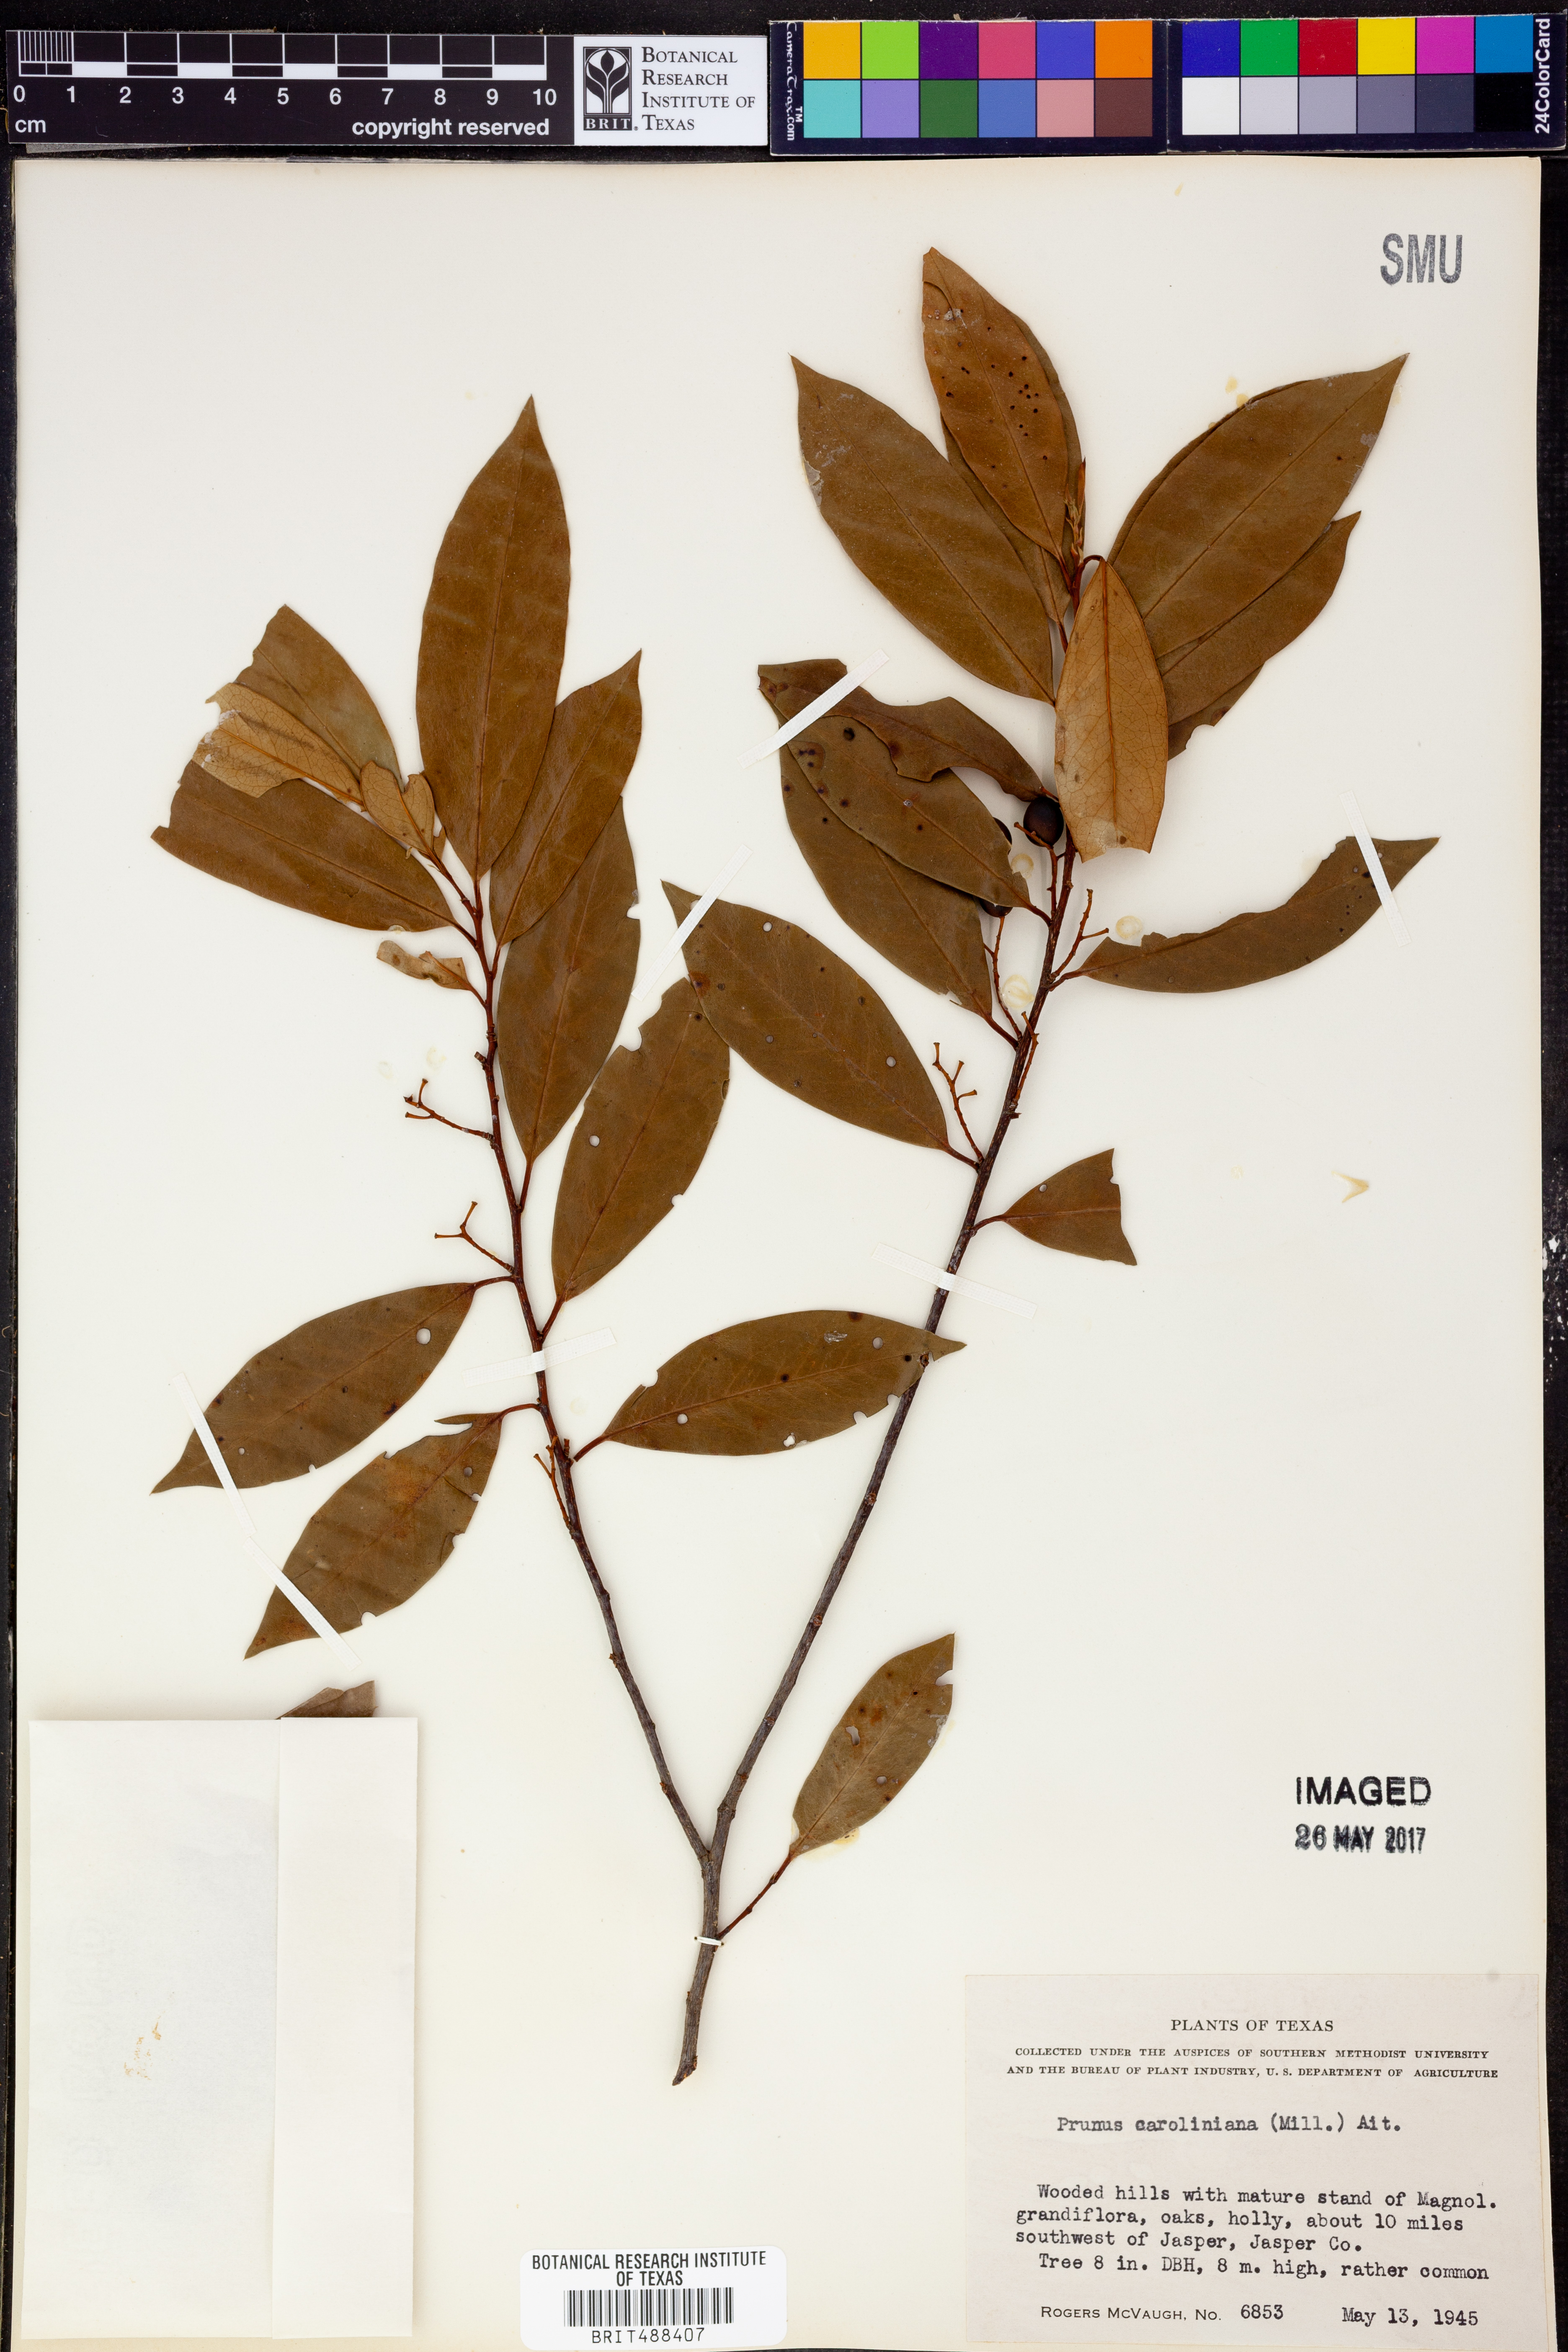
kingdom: Plantae
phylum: Tracheophyta
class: Magnoliopsida
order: Rosales
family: Rosaceae
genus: Prunus
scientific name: Prunus caroliniana
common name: Carolina laurel cherry
